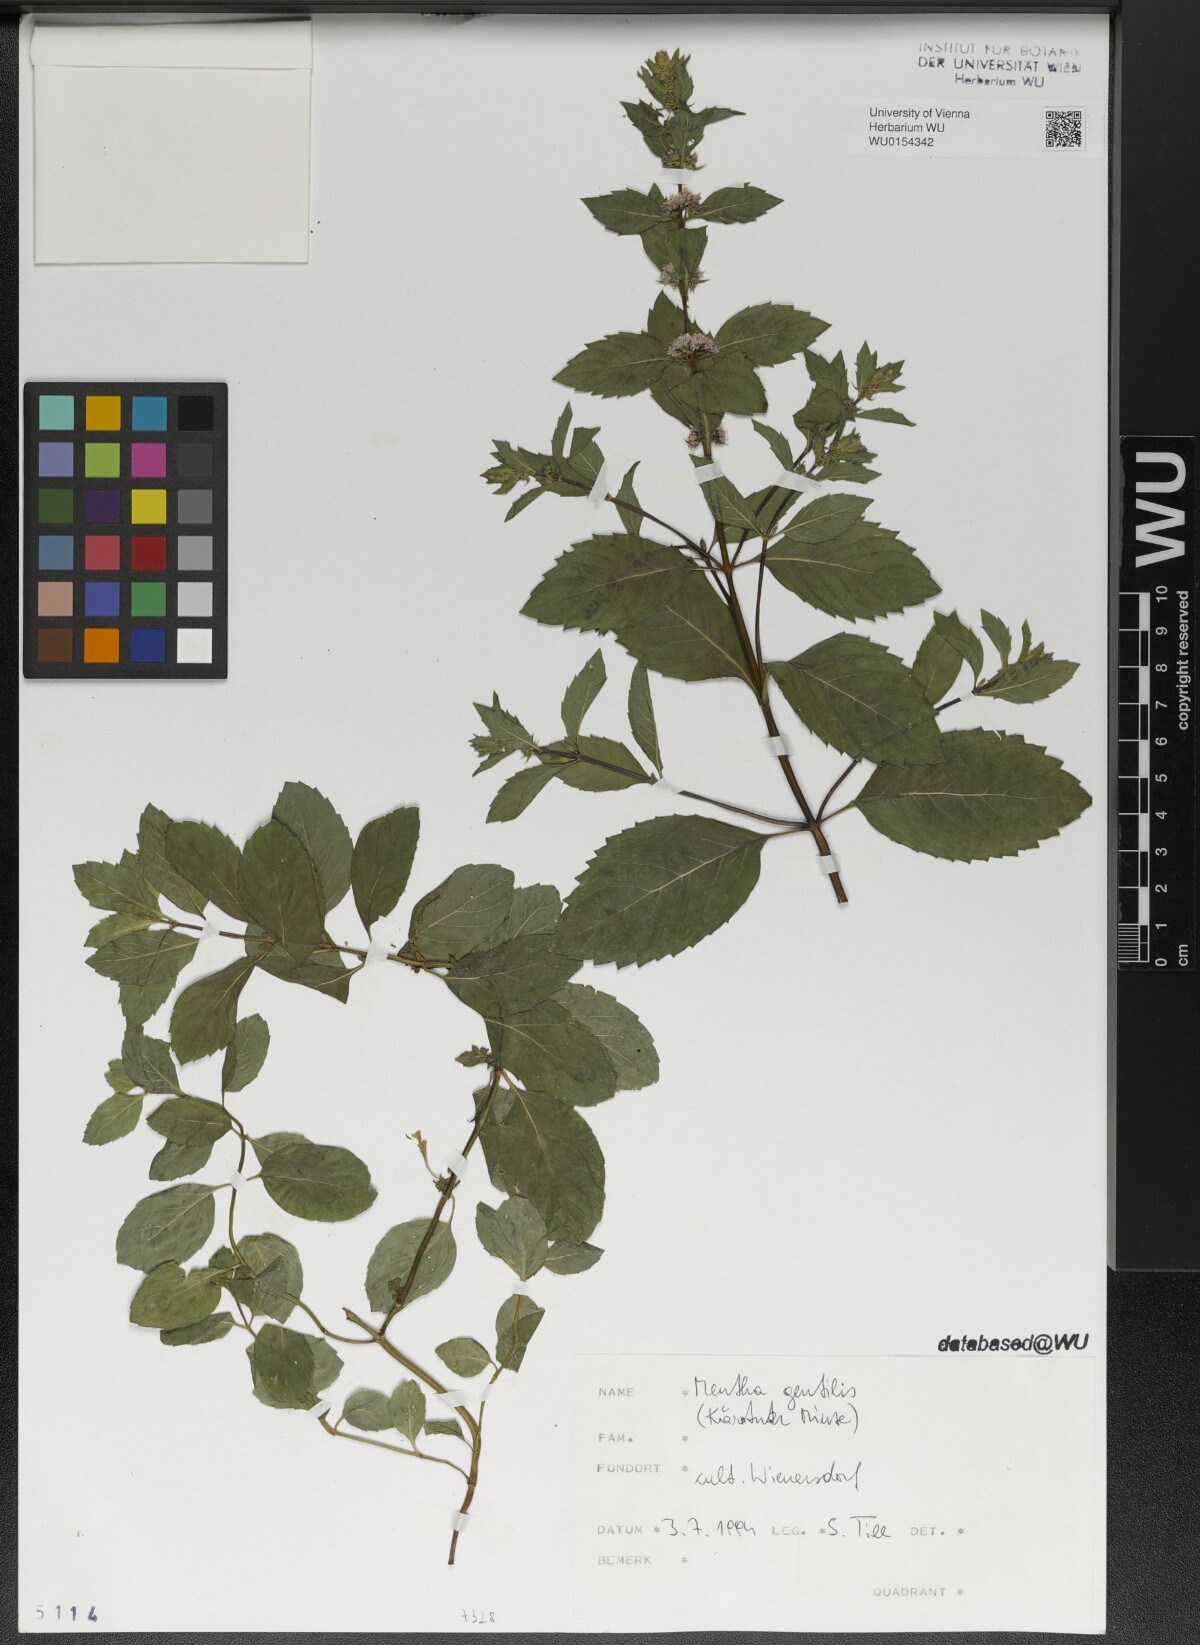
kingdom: Plantae
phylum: Tracheophyta
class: Magnoliopsida
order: Lamiales
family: Lamiaceae
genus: Mentha
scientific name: Mentha arvensis
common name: Corn mint
